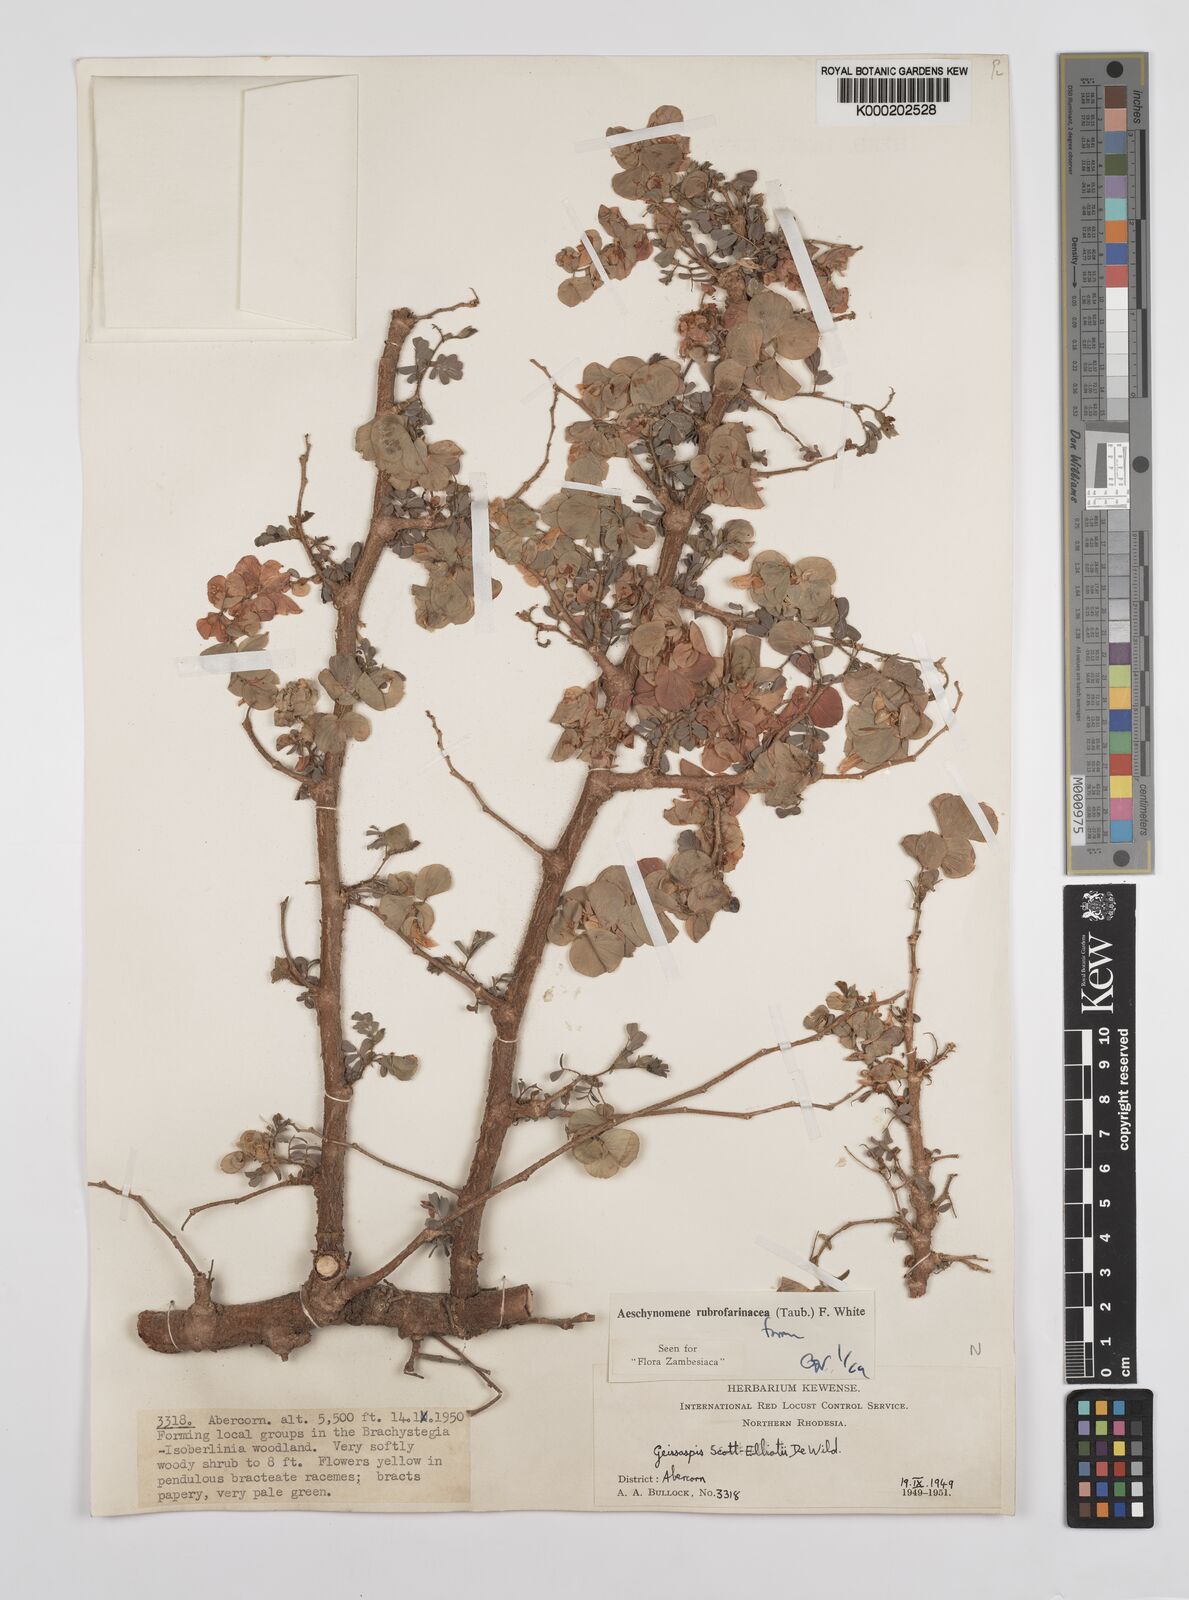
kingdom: Plantae
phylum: Tracheophyta
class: Magnoliopsida
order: Fabales
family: Fabaceae
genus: Aeschynomene
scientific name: Aeschynomene rubrofarinacea
